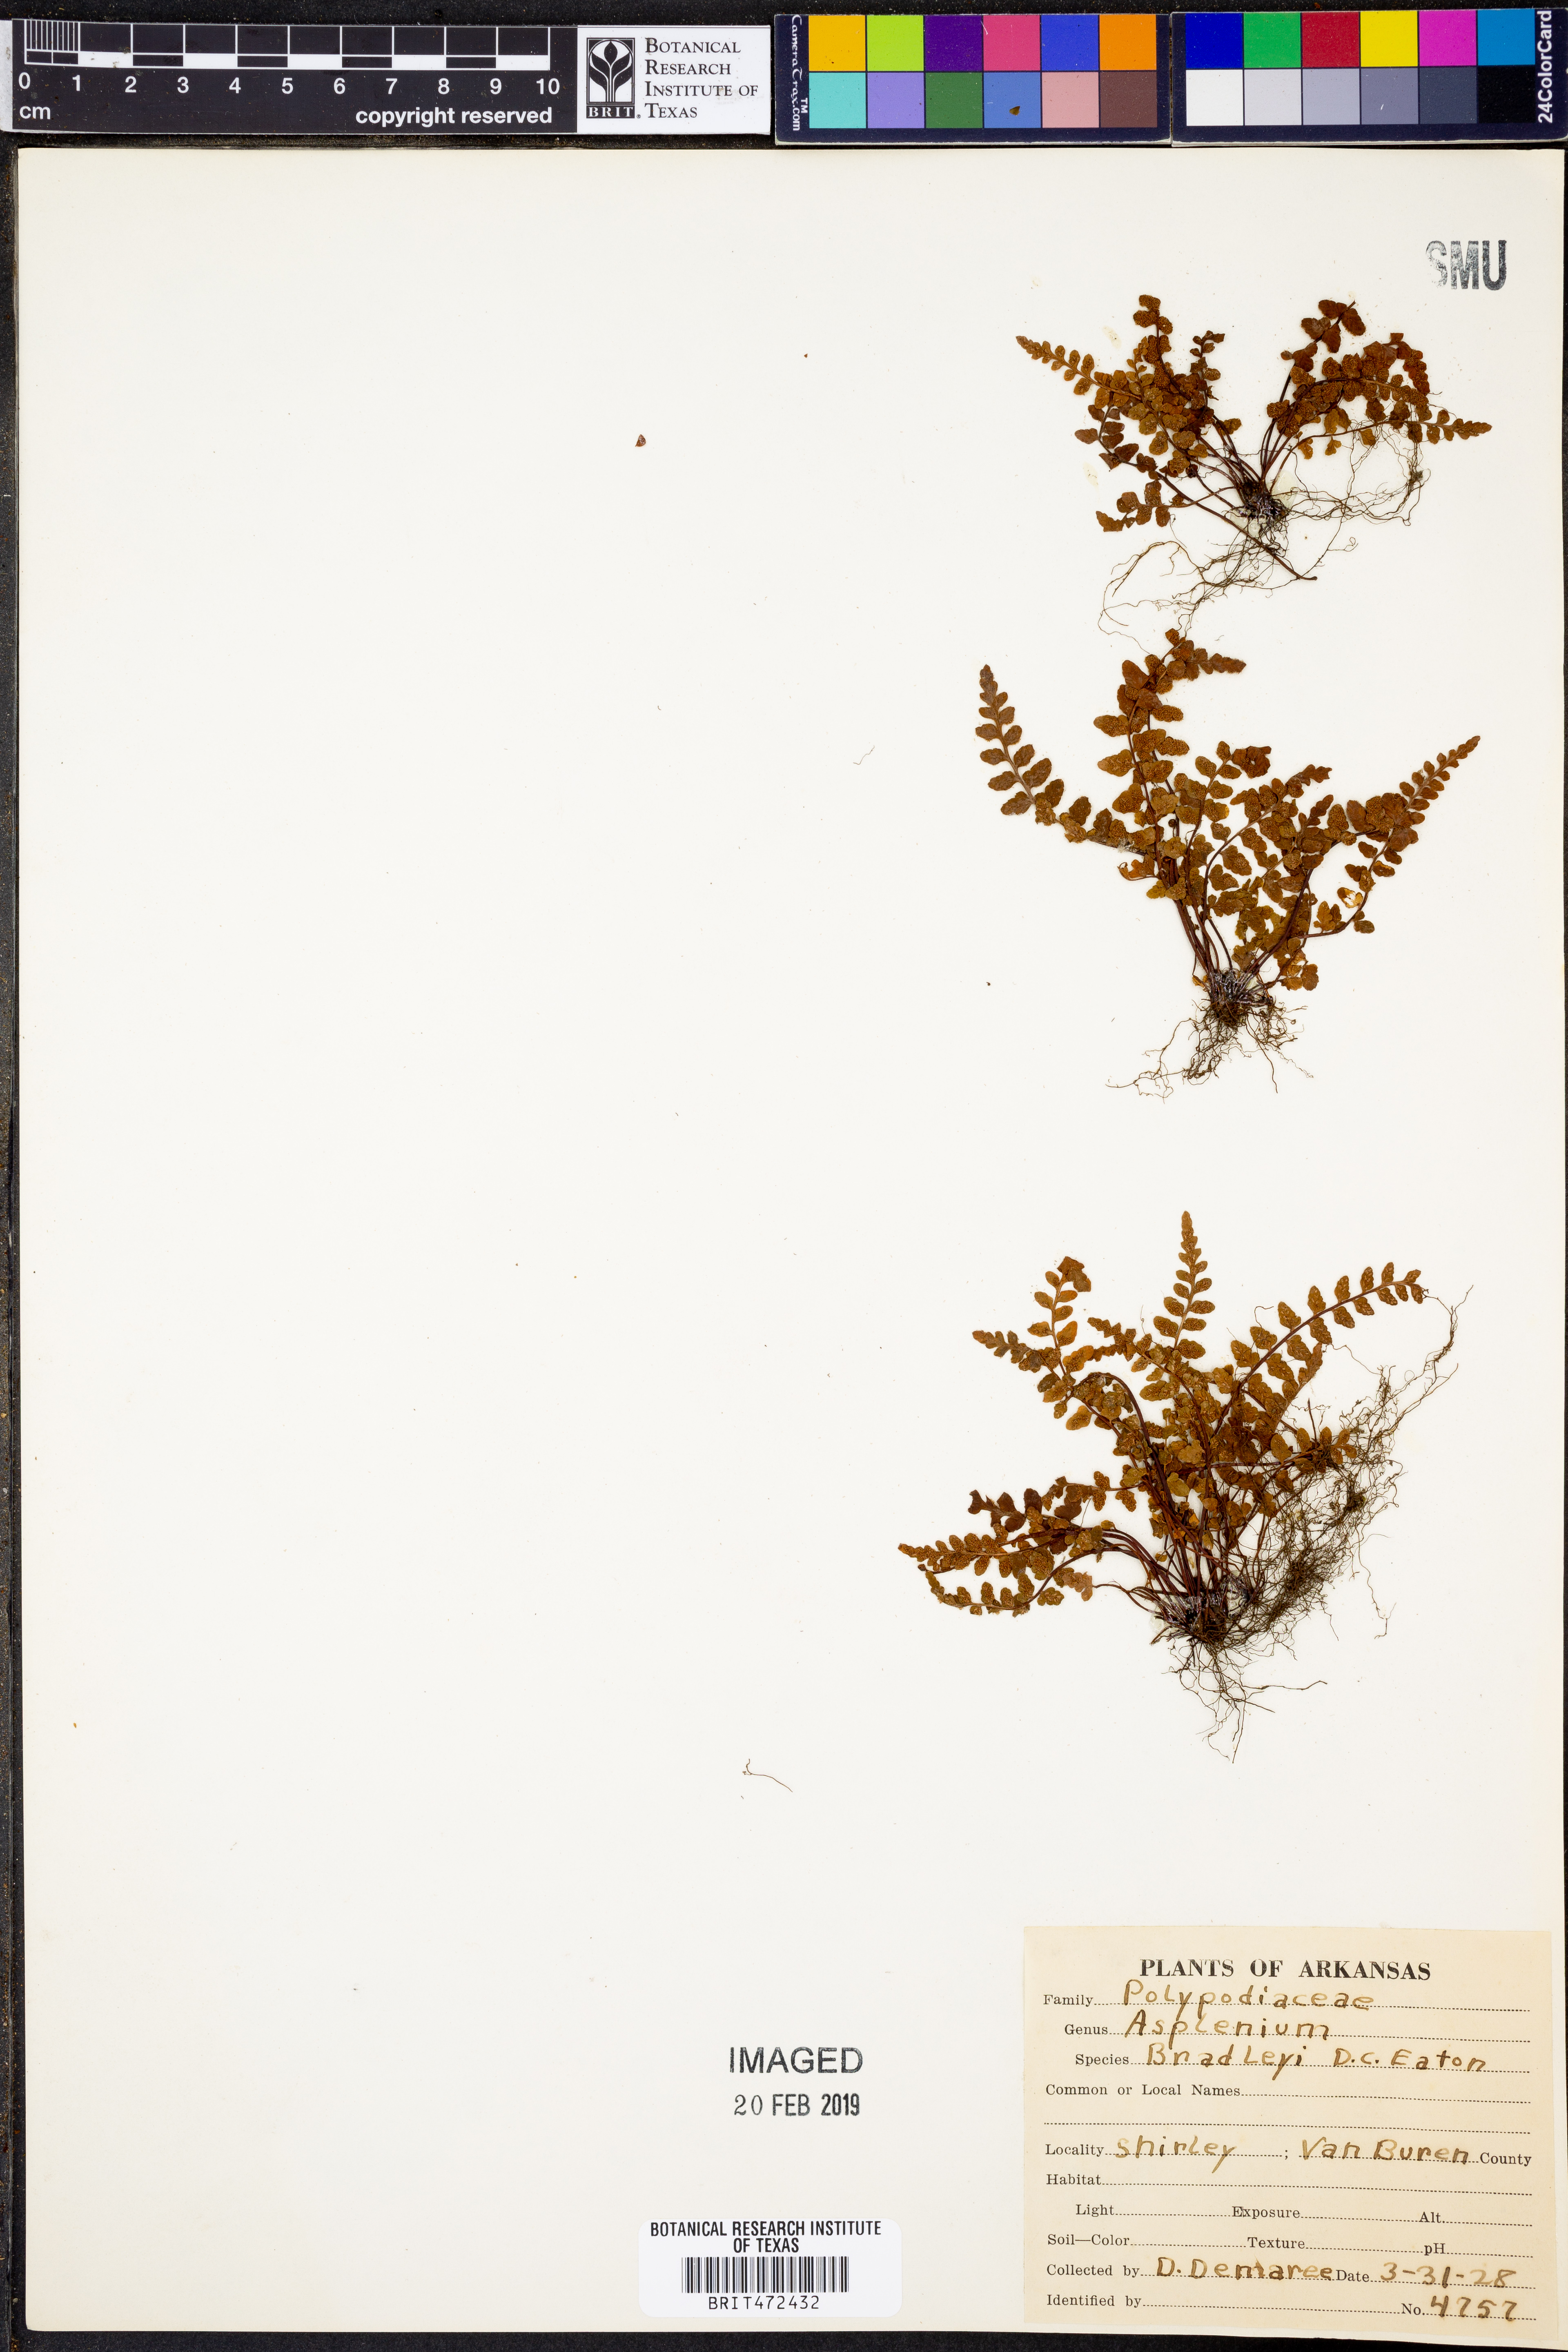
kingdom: Plantae
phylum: Tracheophyta
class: Polypodiopsida
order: Polypodiales
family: Aspleniaceae
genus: Asplenium
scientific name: Asplenium bradleyi
